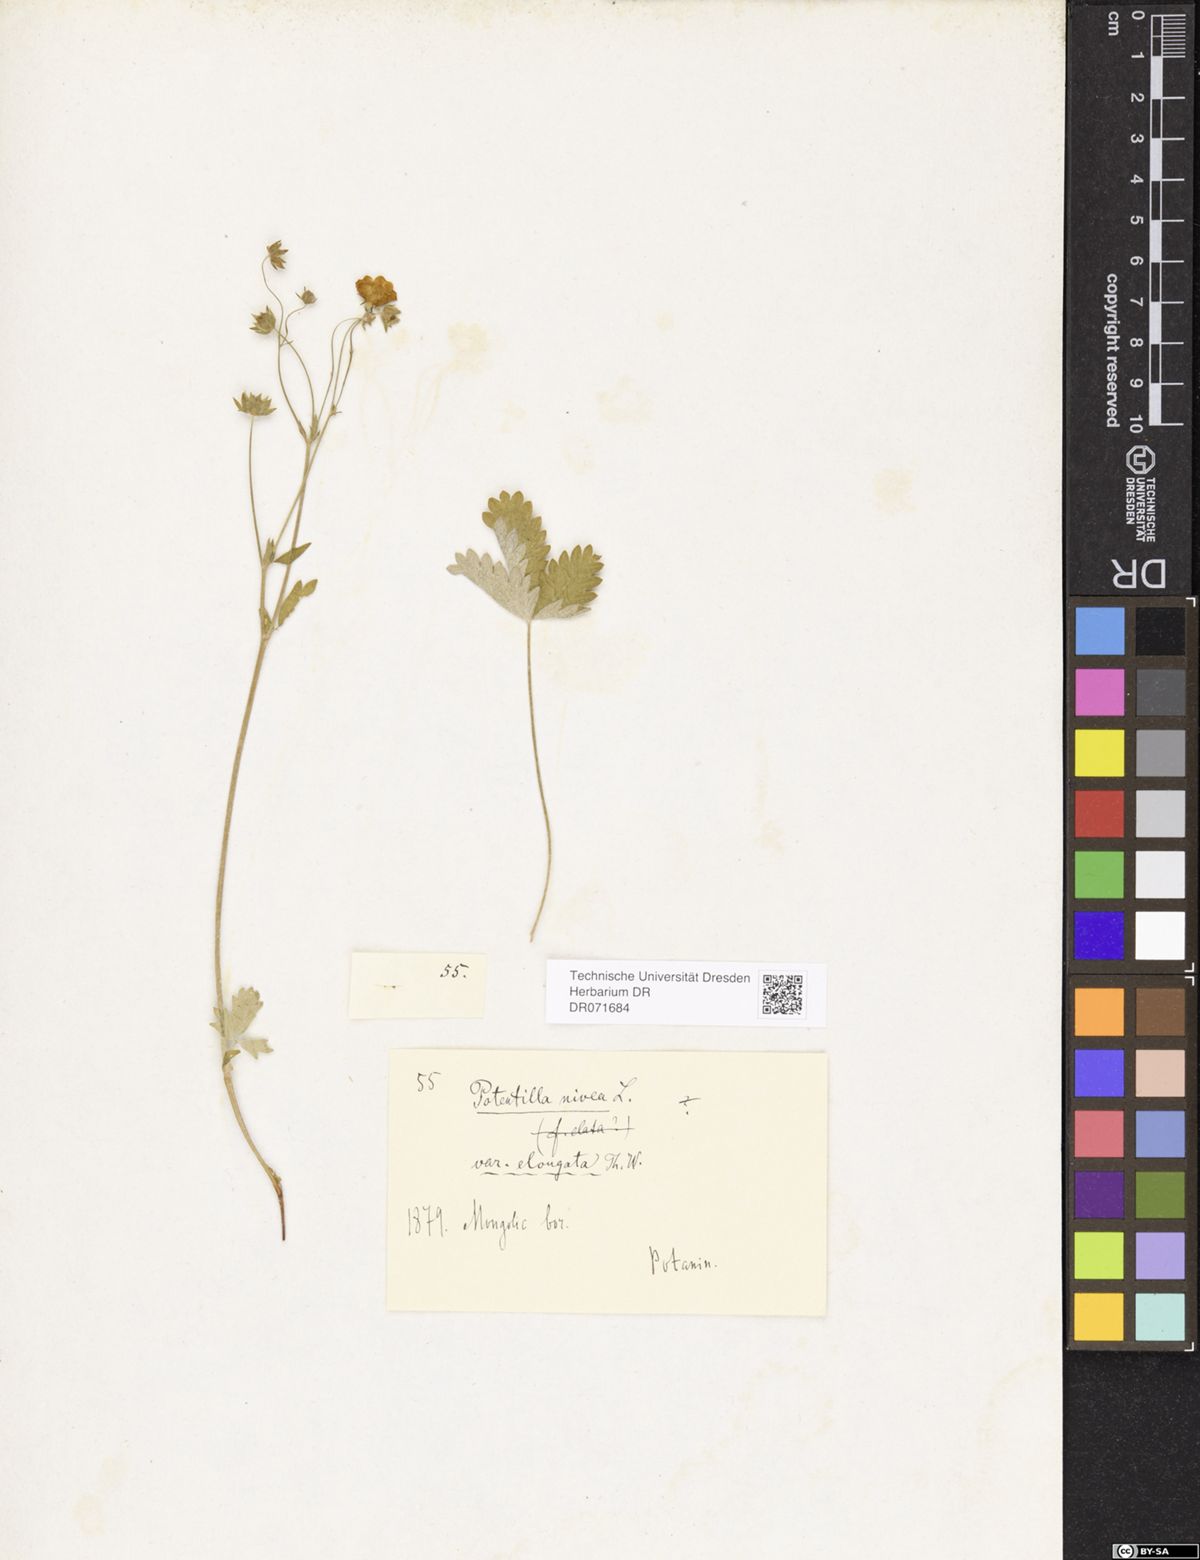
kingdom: Plantae
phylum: Tracheophyta
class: Magnoliopsida
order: Rosales
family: Rosaceae
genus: Potentilla
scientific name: Potentilla crebridens
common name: Congested cinquefoil
